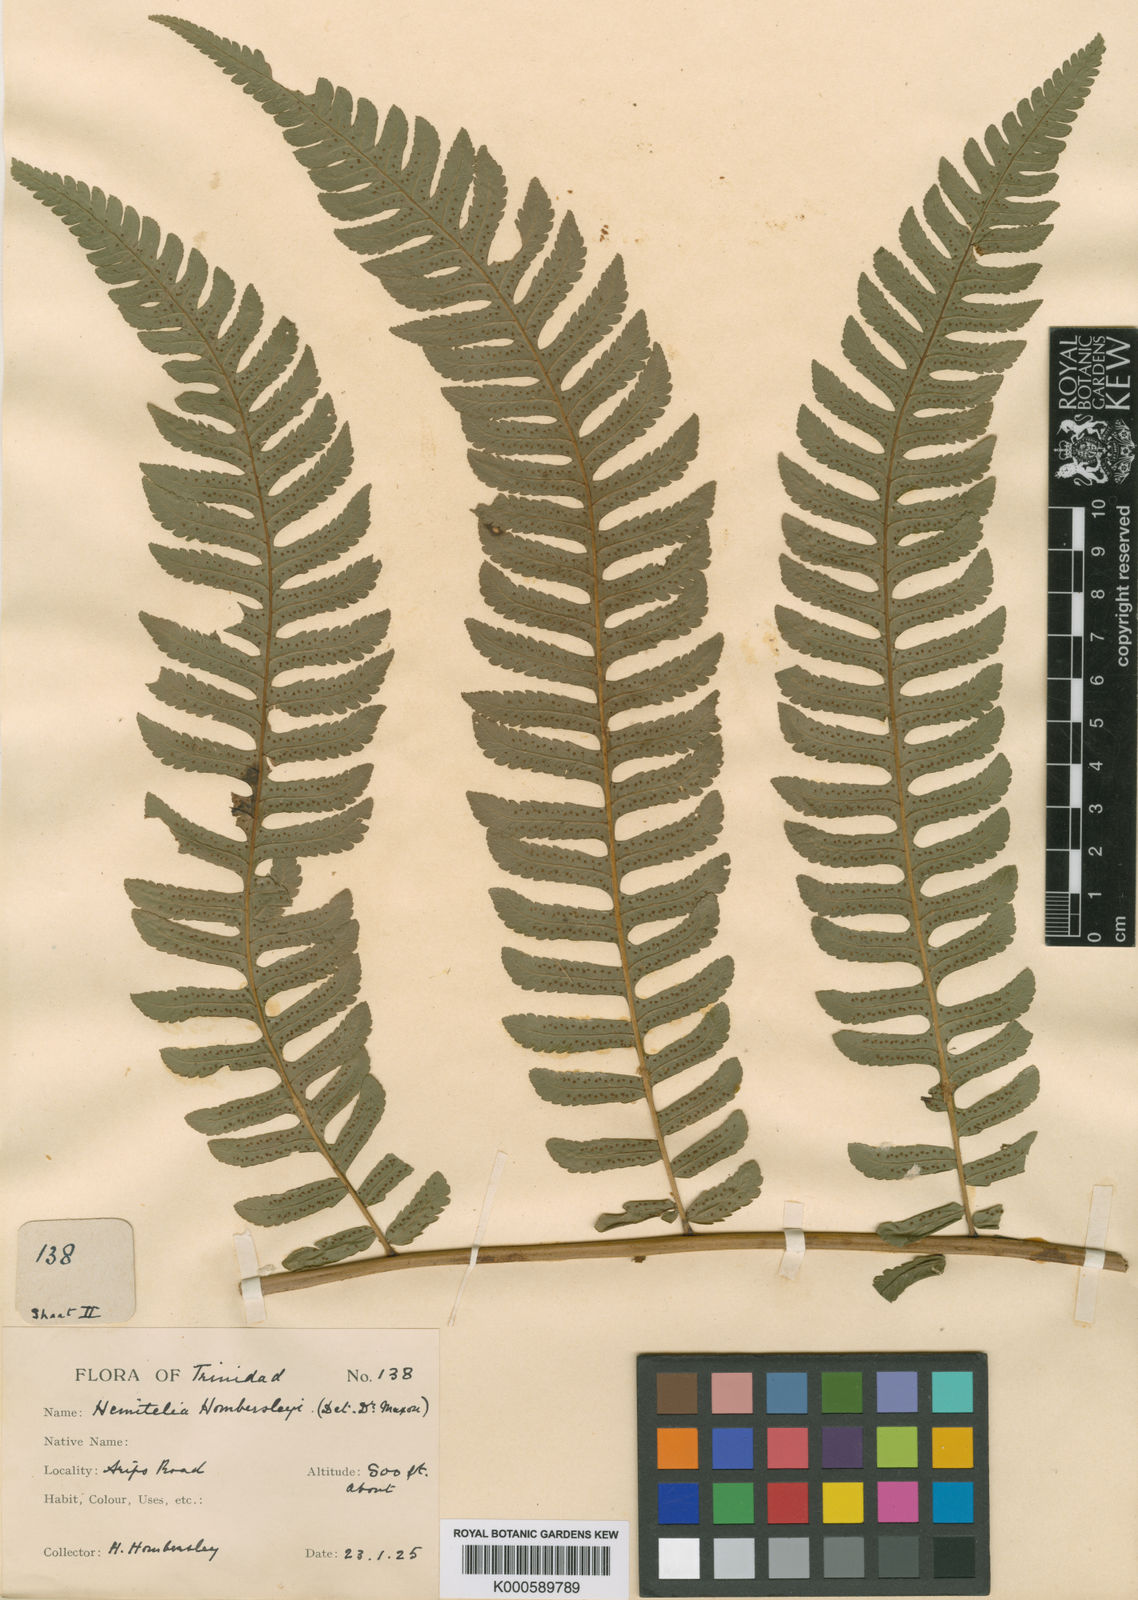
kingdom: Plantae
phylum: Tracheophyta
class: Polypodiopsida
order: Cyatheales
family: Cyatheaceae
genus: Cyathea
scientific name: Cyathea hombersleyi
